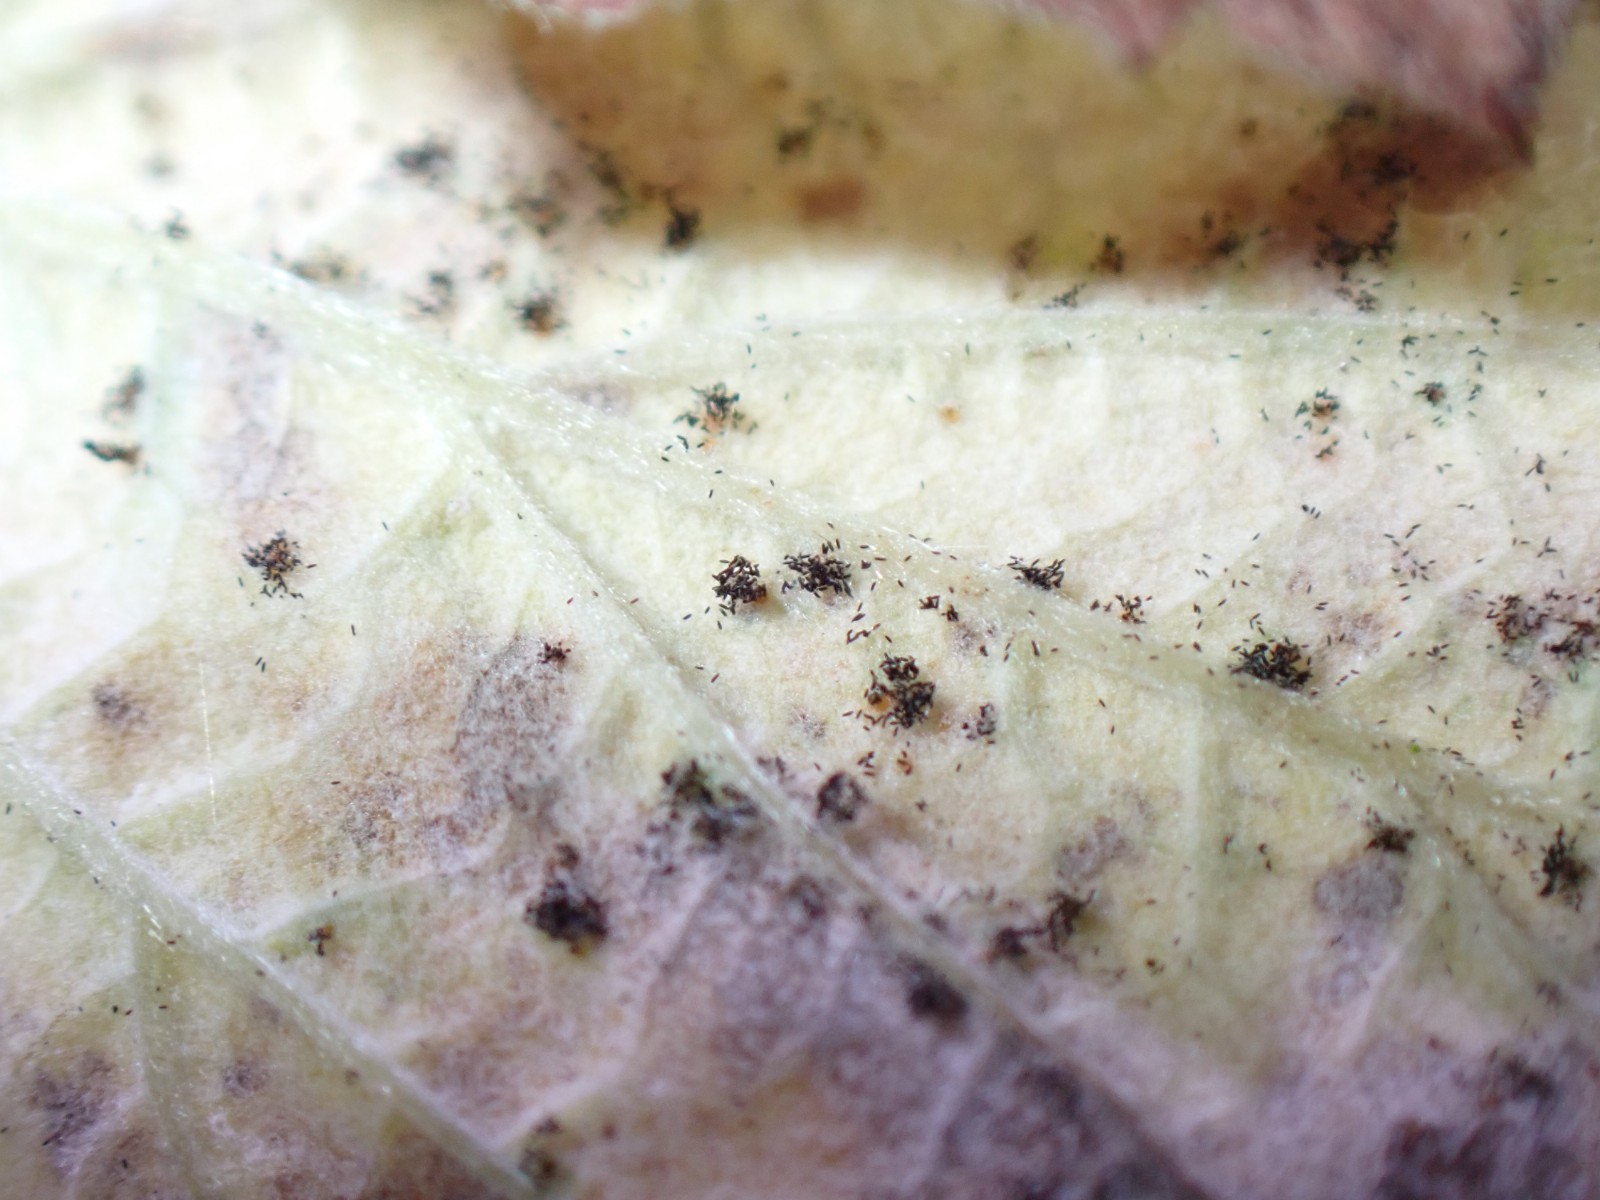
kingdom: Fungi
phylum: Basidiomycota
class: Pucciniomycetes
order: Pucciniales
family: Phragmidiaceae
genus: Phragmidium
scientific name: Phragmidium rubi-idaei
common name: hindbær-flercellerust
